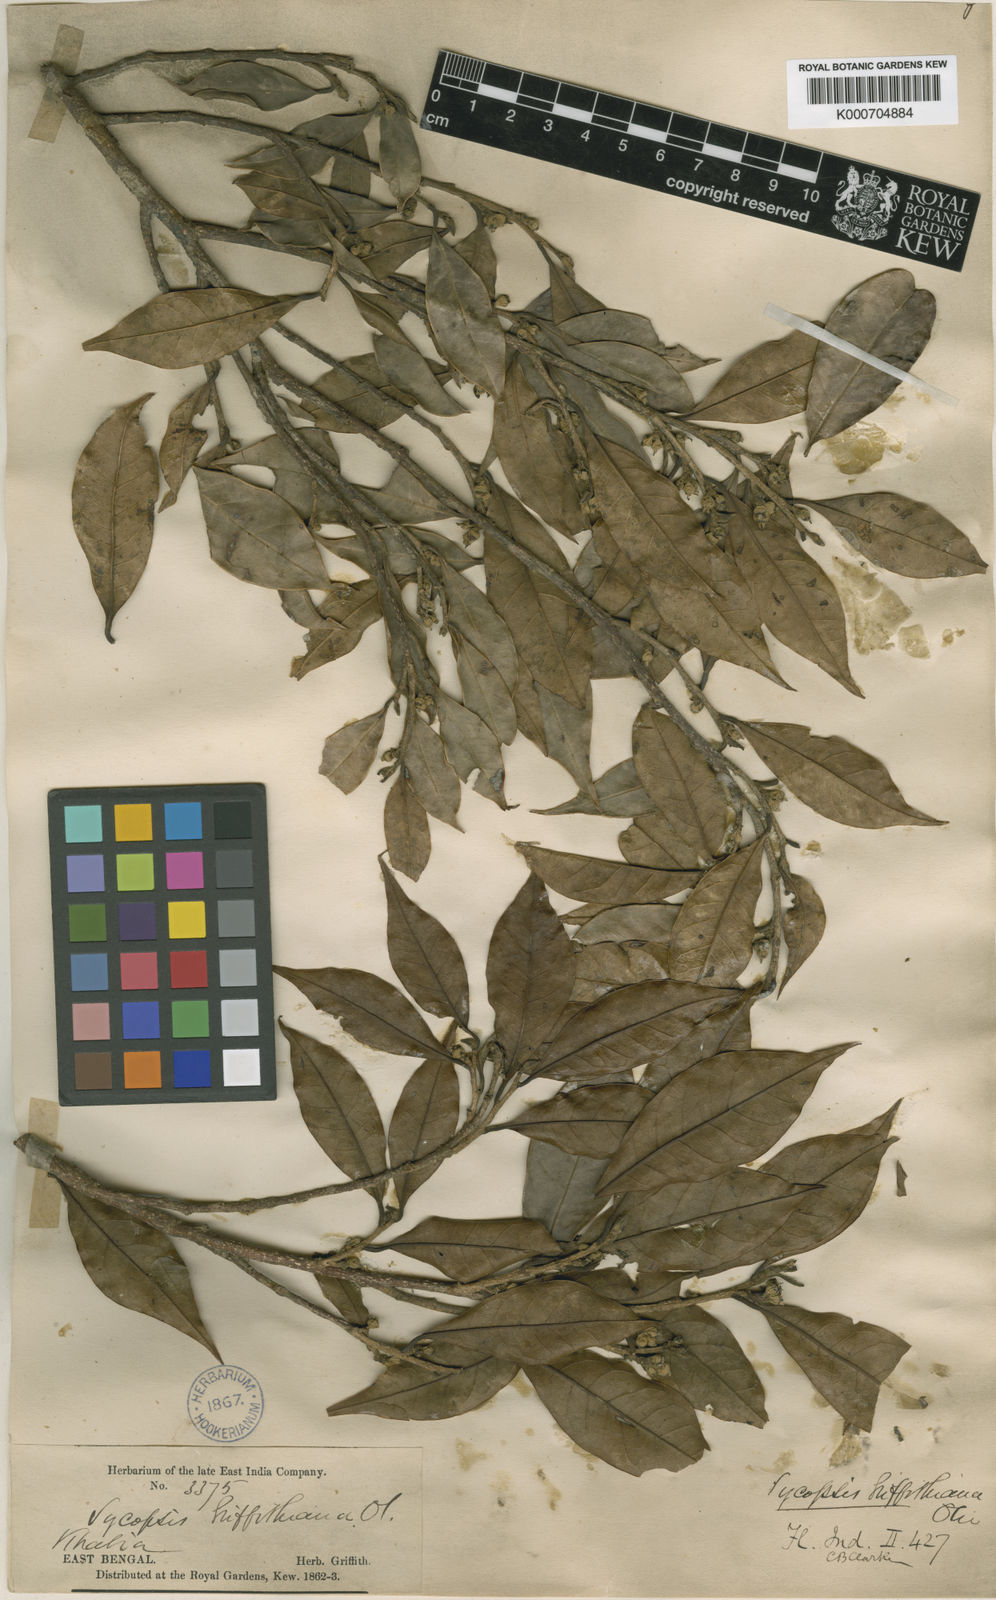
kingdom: Plantae
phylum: Tracheophyta
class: Magnoliopsida
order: Saxifragales
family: Hamamelidaceae
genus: Eustigma
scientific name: Eustigma lenticellatum
